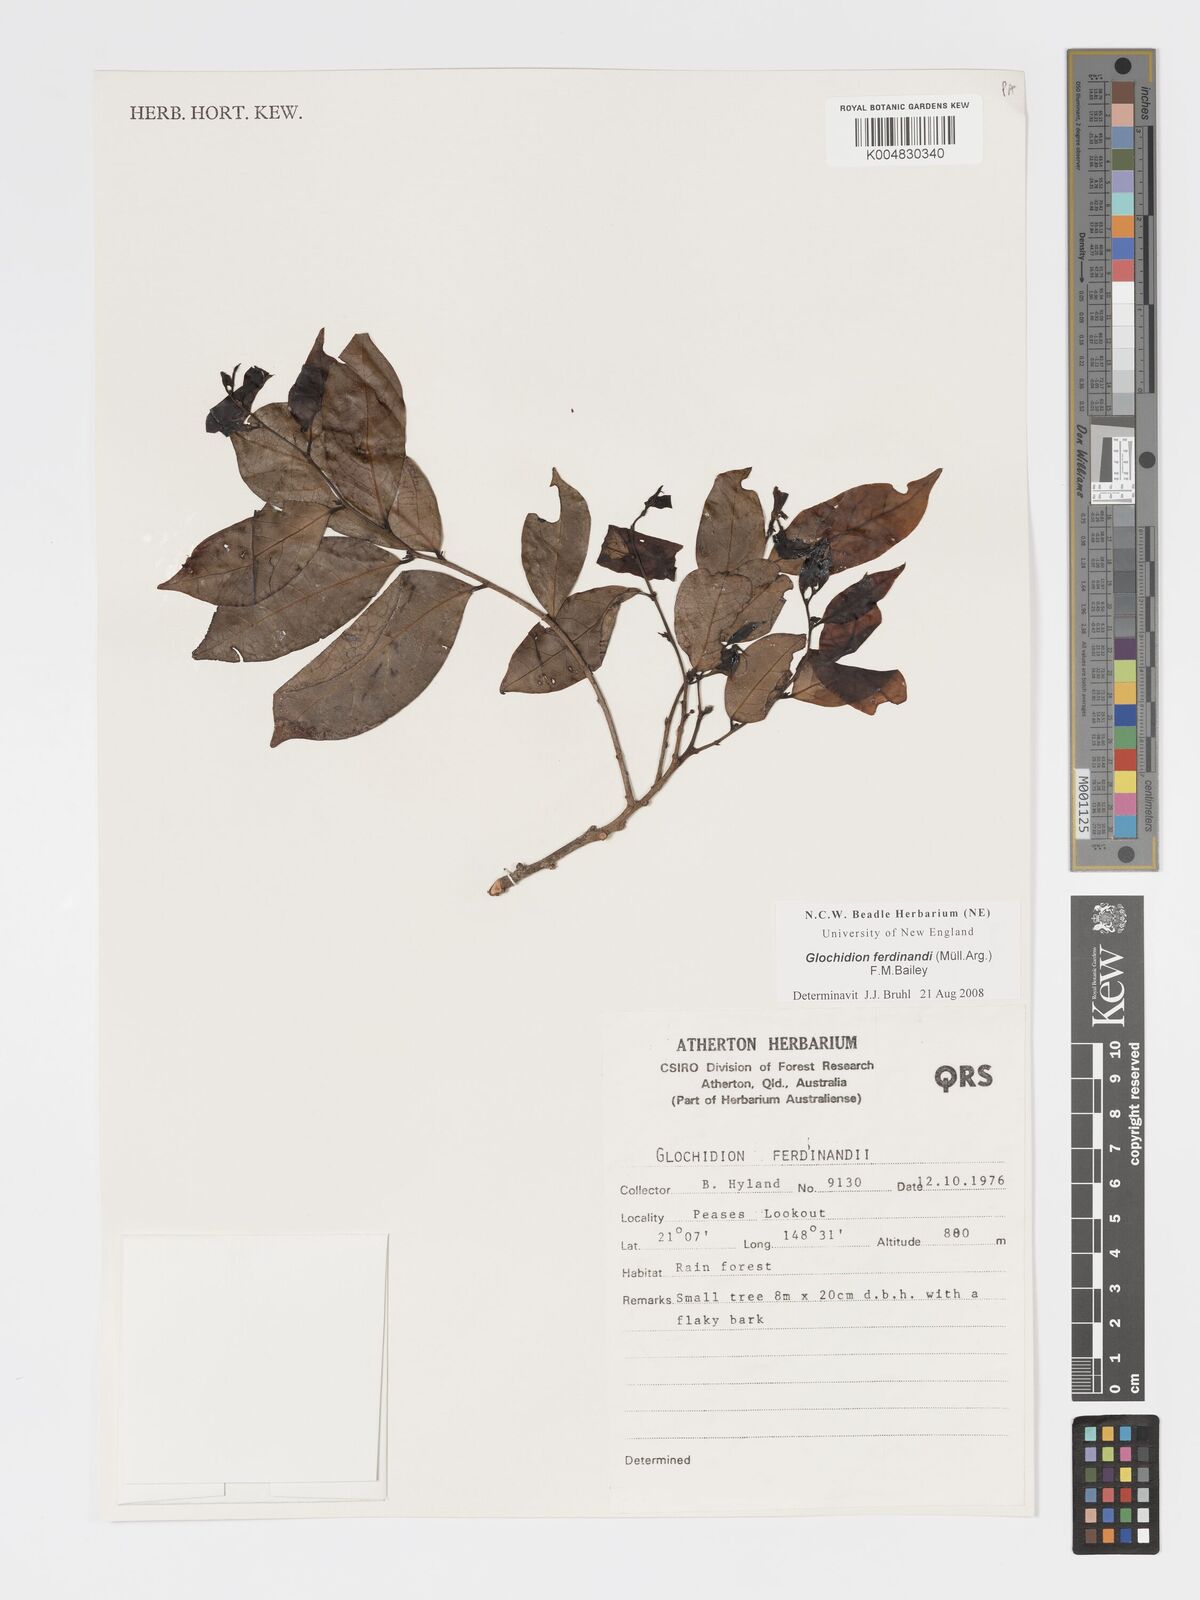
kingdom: Plantae
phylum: Tracheophyta
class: Magnoliopsida
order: Malpighiales
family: Phyllanthaceae
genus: Glochidion
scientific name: Glochidion ferdinandi
